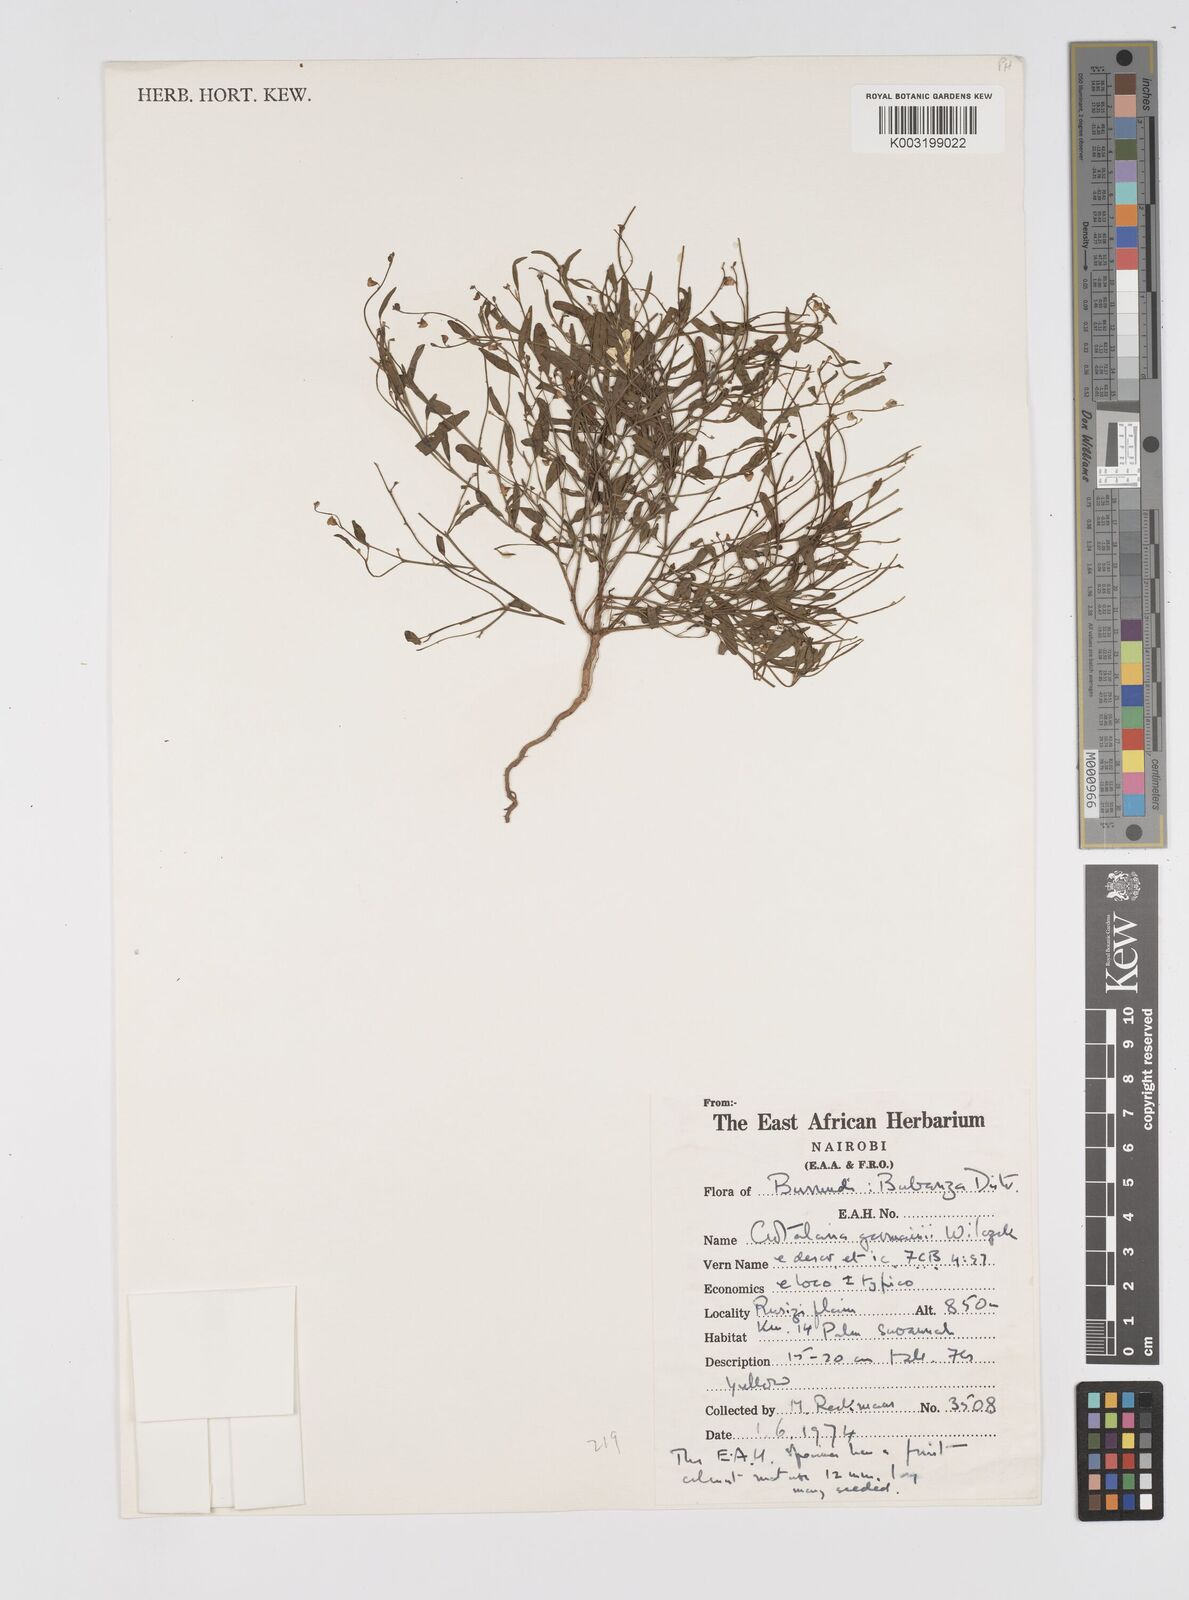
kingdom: Plantae
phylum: Tracheophyta
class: Magnoliopsida
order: Fabales
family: Fabaceae
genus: Crotalaria
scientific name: Crotalaria germainii
